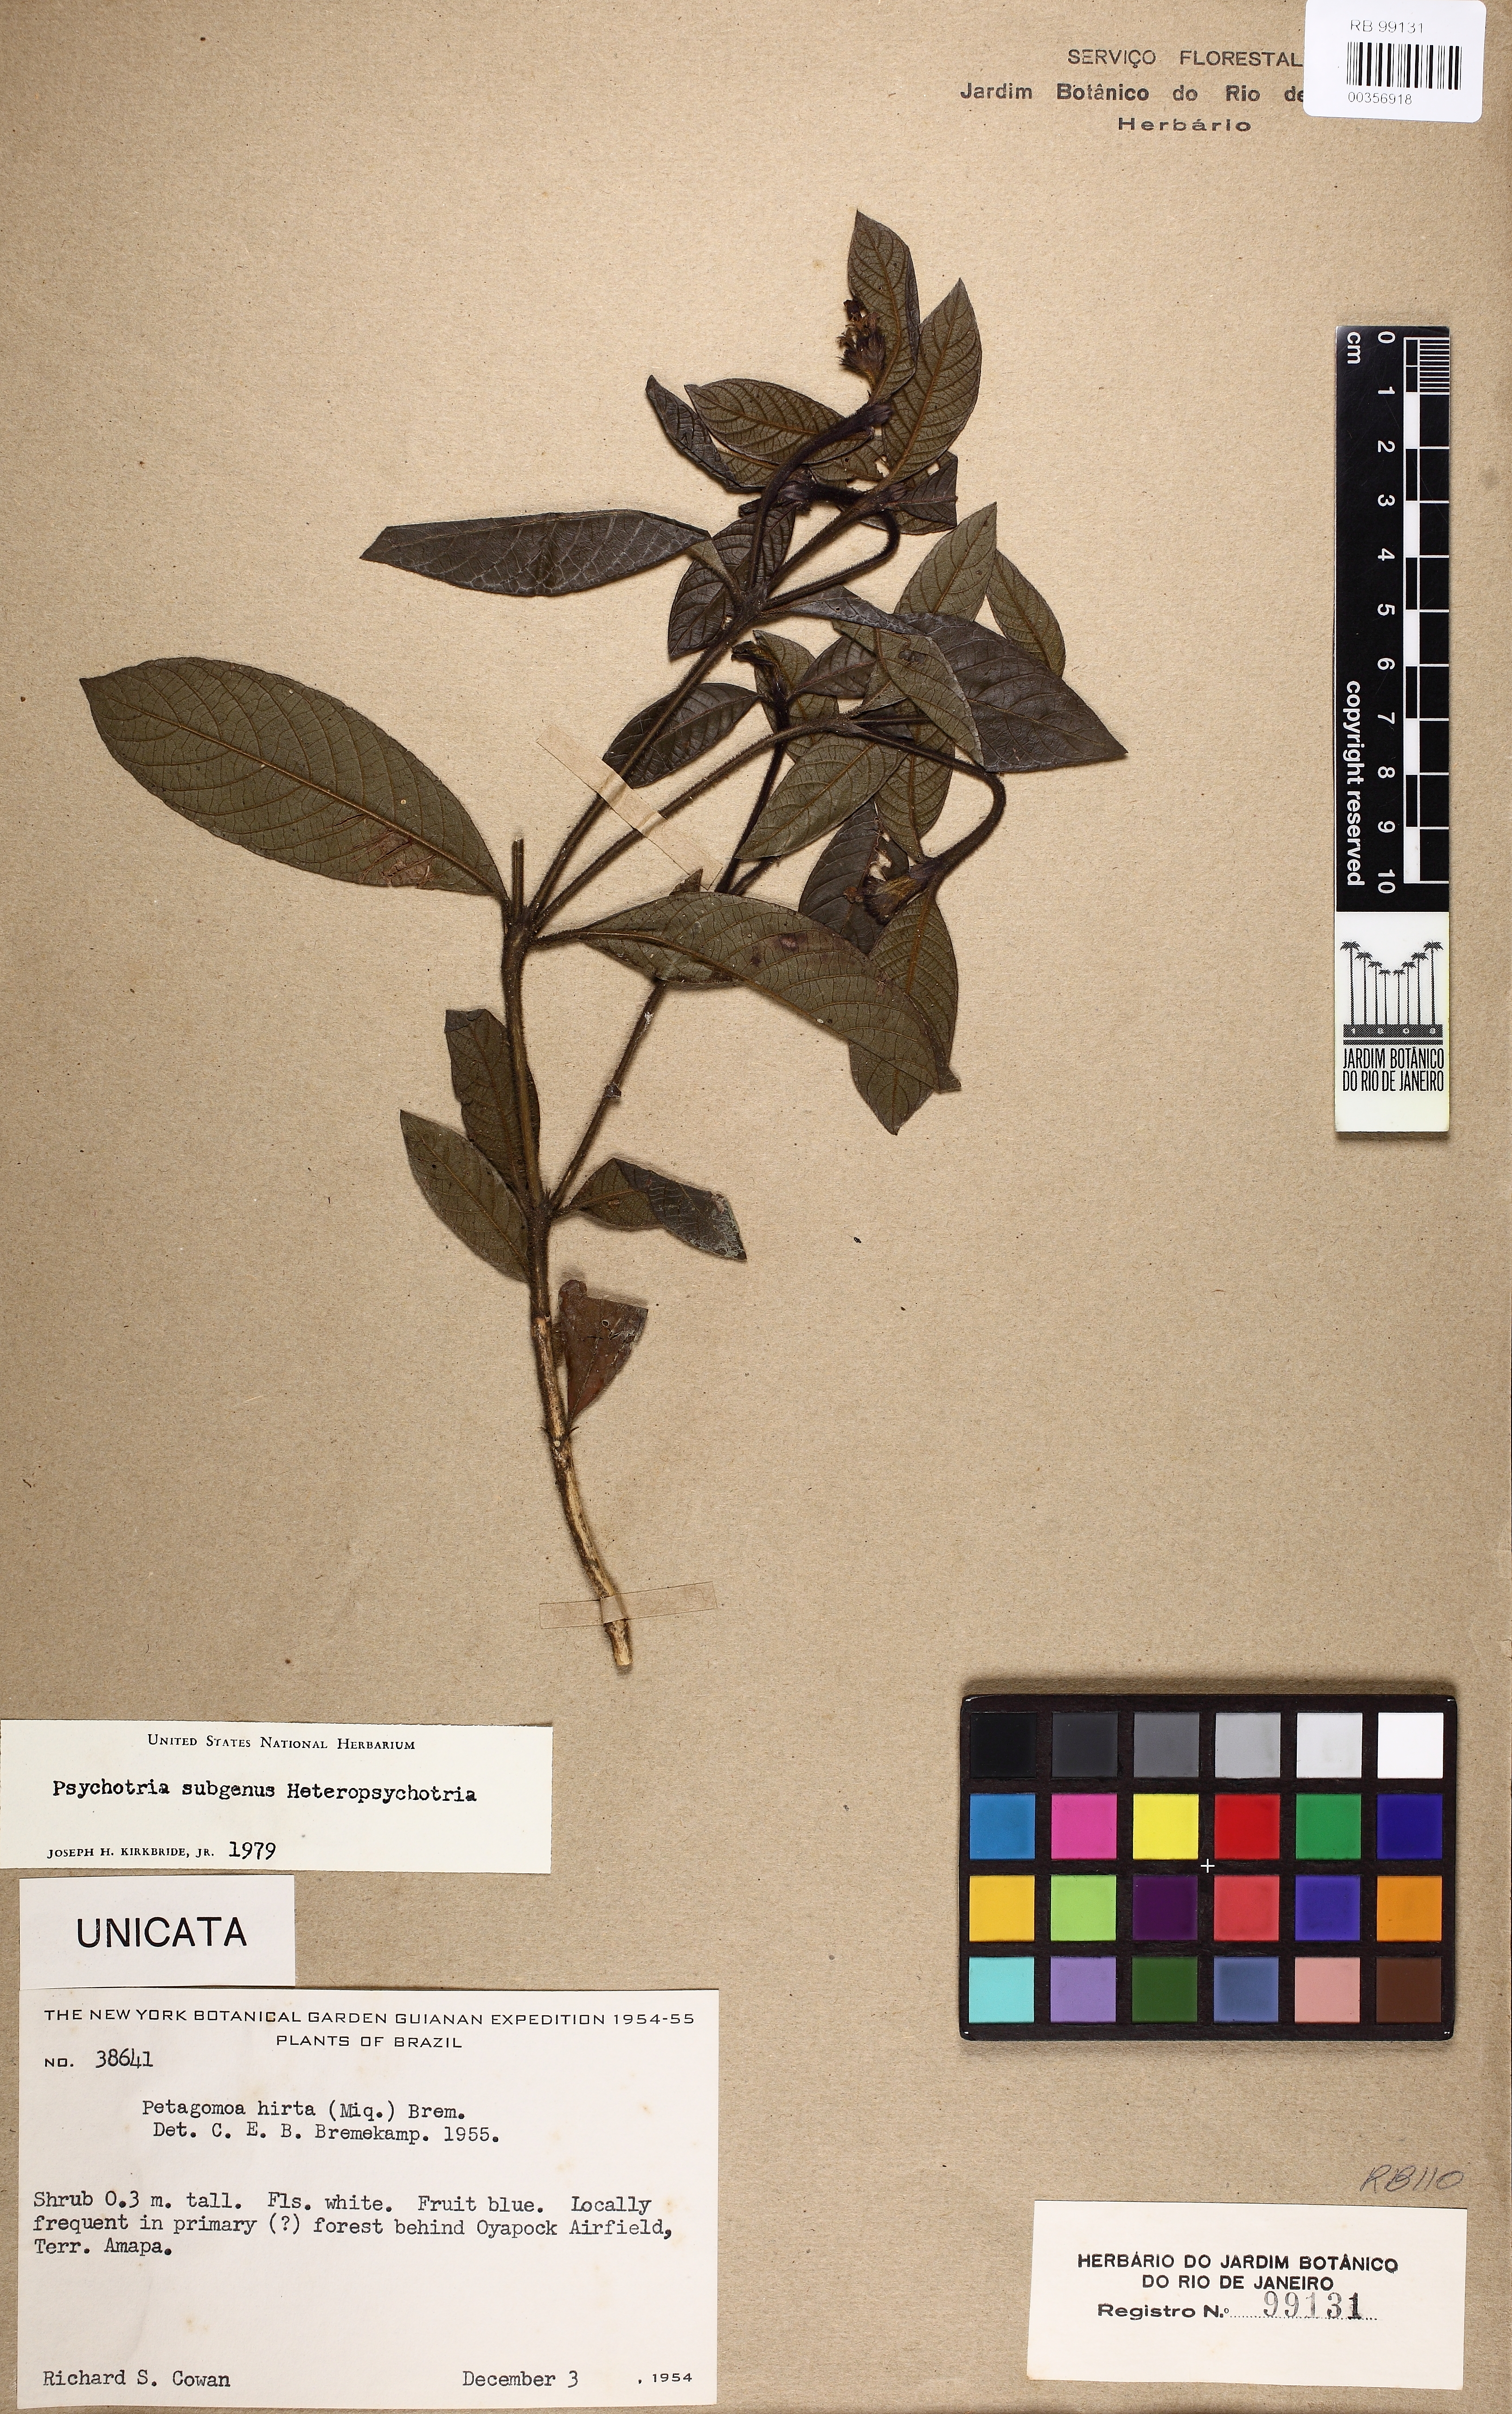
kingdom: Plantae
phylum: Tracheophyta
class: Magnoliopsida
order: Gentianales
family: Rubiaceae
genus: Psychotria
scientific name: Psychotria
